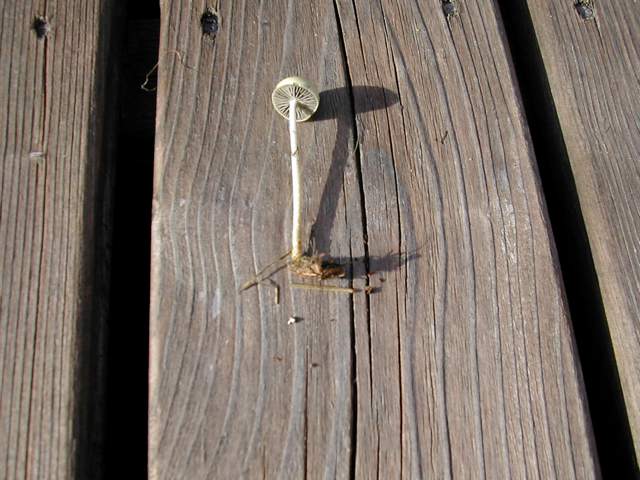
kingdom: Fungi
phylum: Basidiomycota
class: Agaricomycetes
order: Agaricales
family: Strophariaceae
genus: Protostropharia
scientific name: Protostropharia semiglobata
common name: halvkugleformet bredblad
